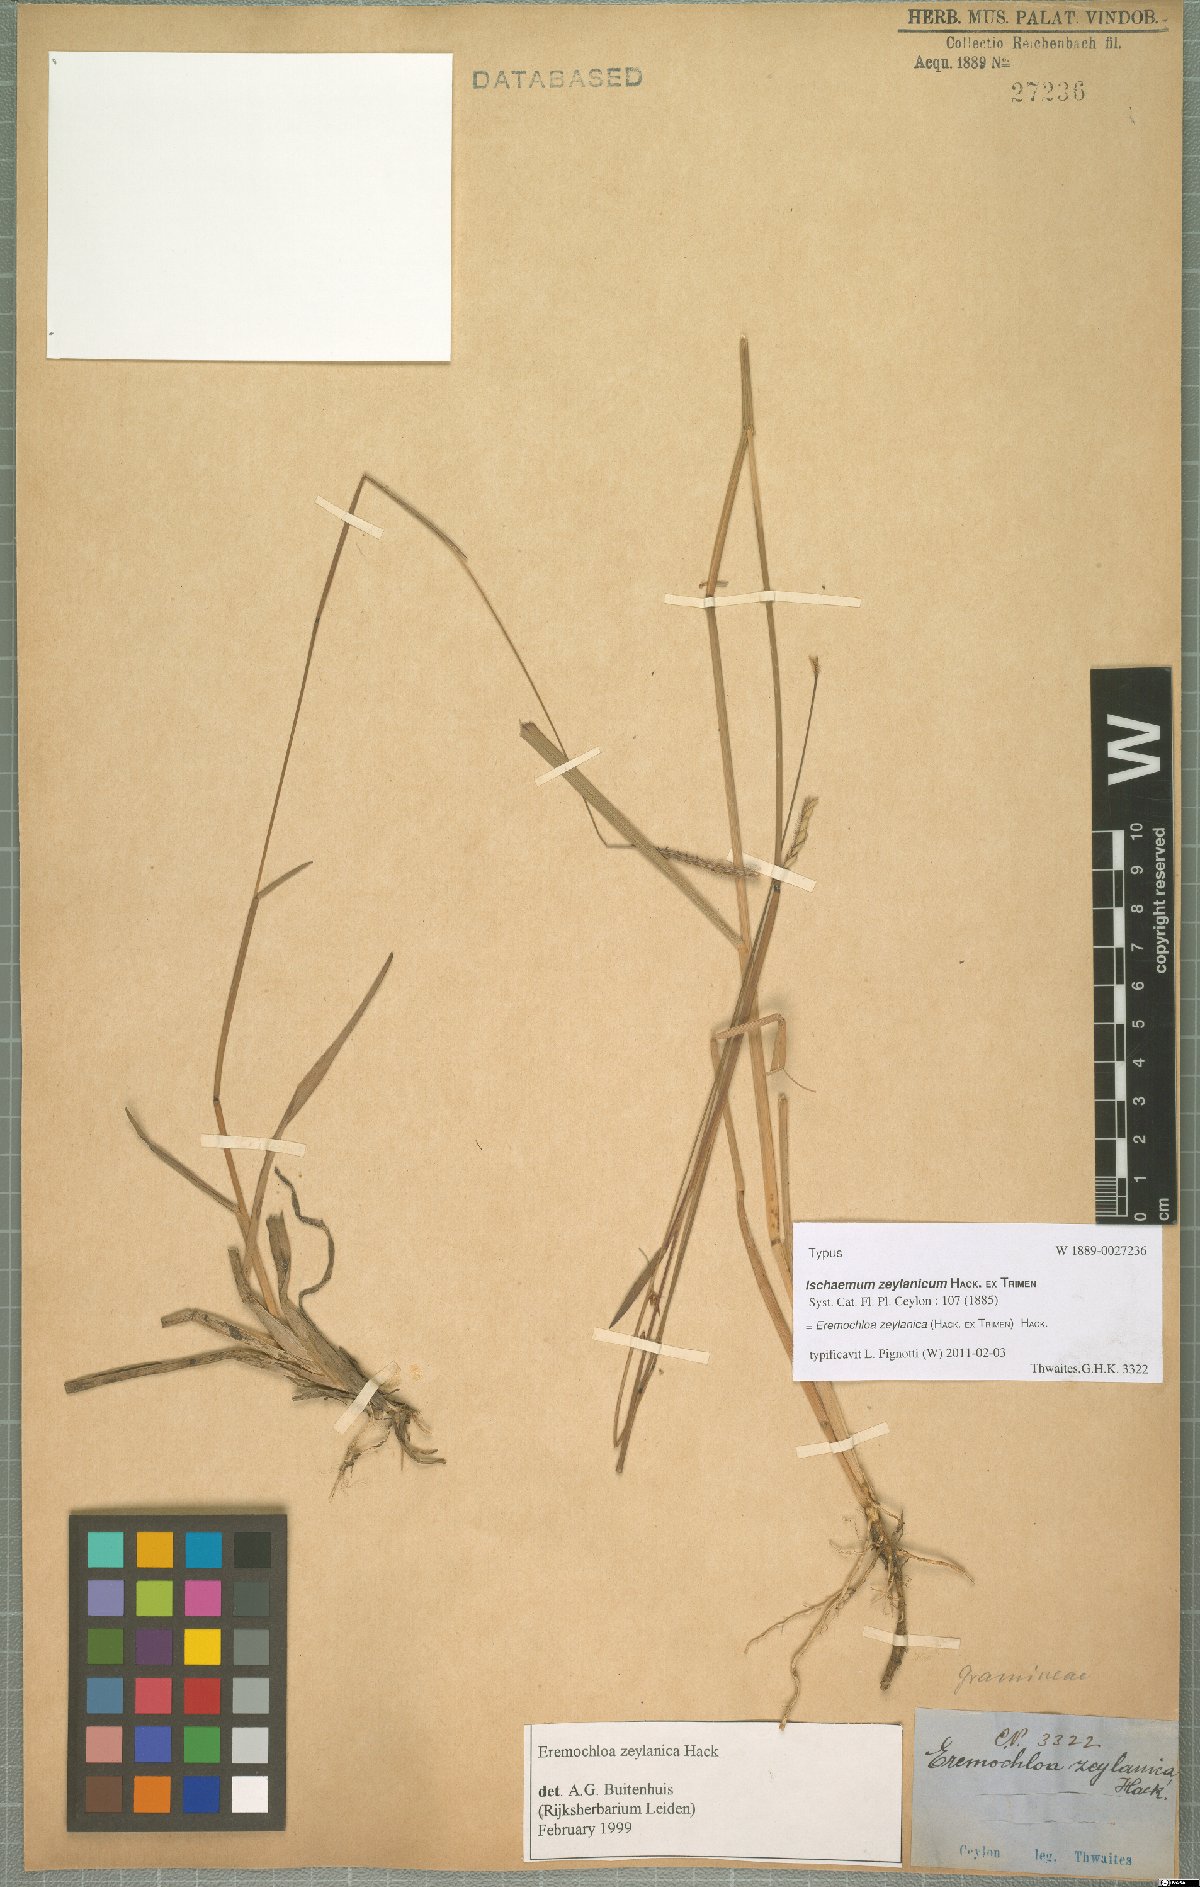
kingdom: Plantae
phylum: Tracheophyta
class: Liliopsida
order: Poales
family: Poaceae
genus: Eremochloa
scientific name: Eremochloa zeylanica
